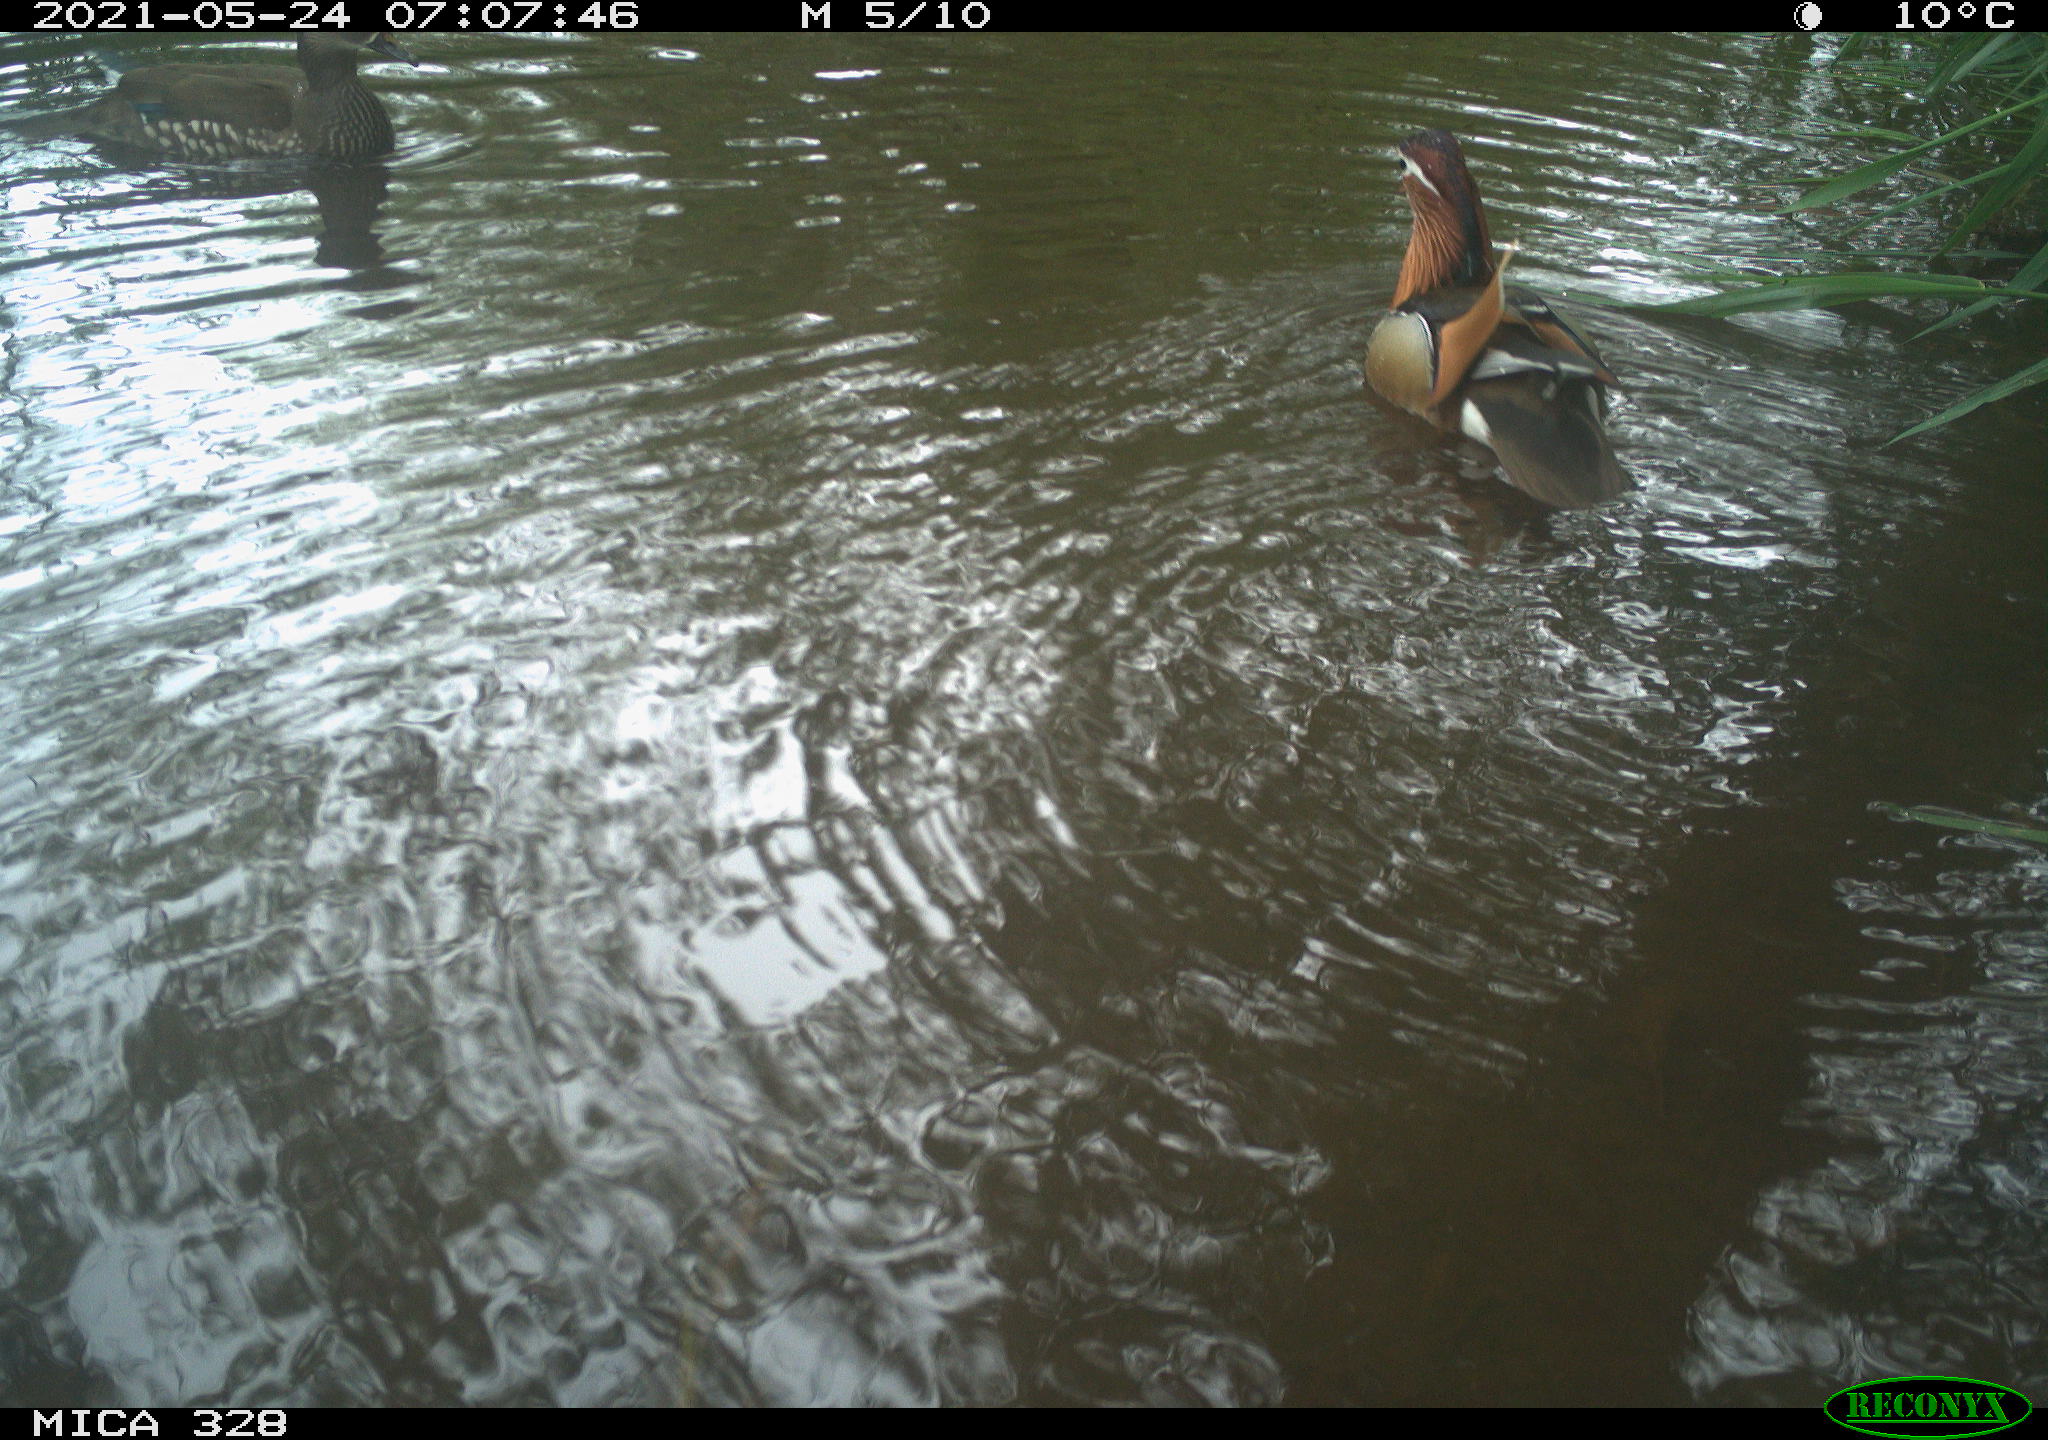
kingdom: Animalia
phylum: Chordata
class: Aves
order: Anseriformes
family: Anatidae
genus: Aix
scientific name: Aix galericulata
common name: Mandarin duck
